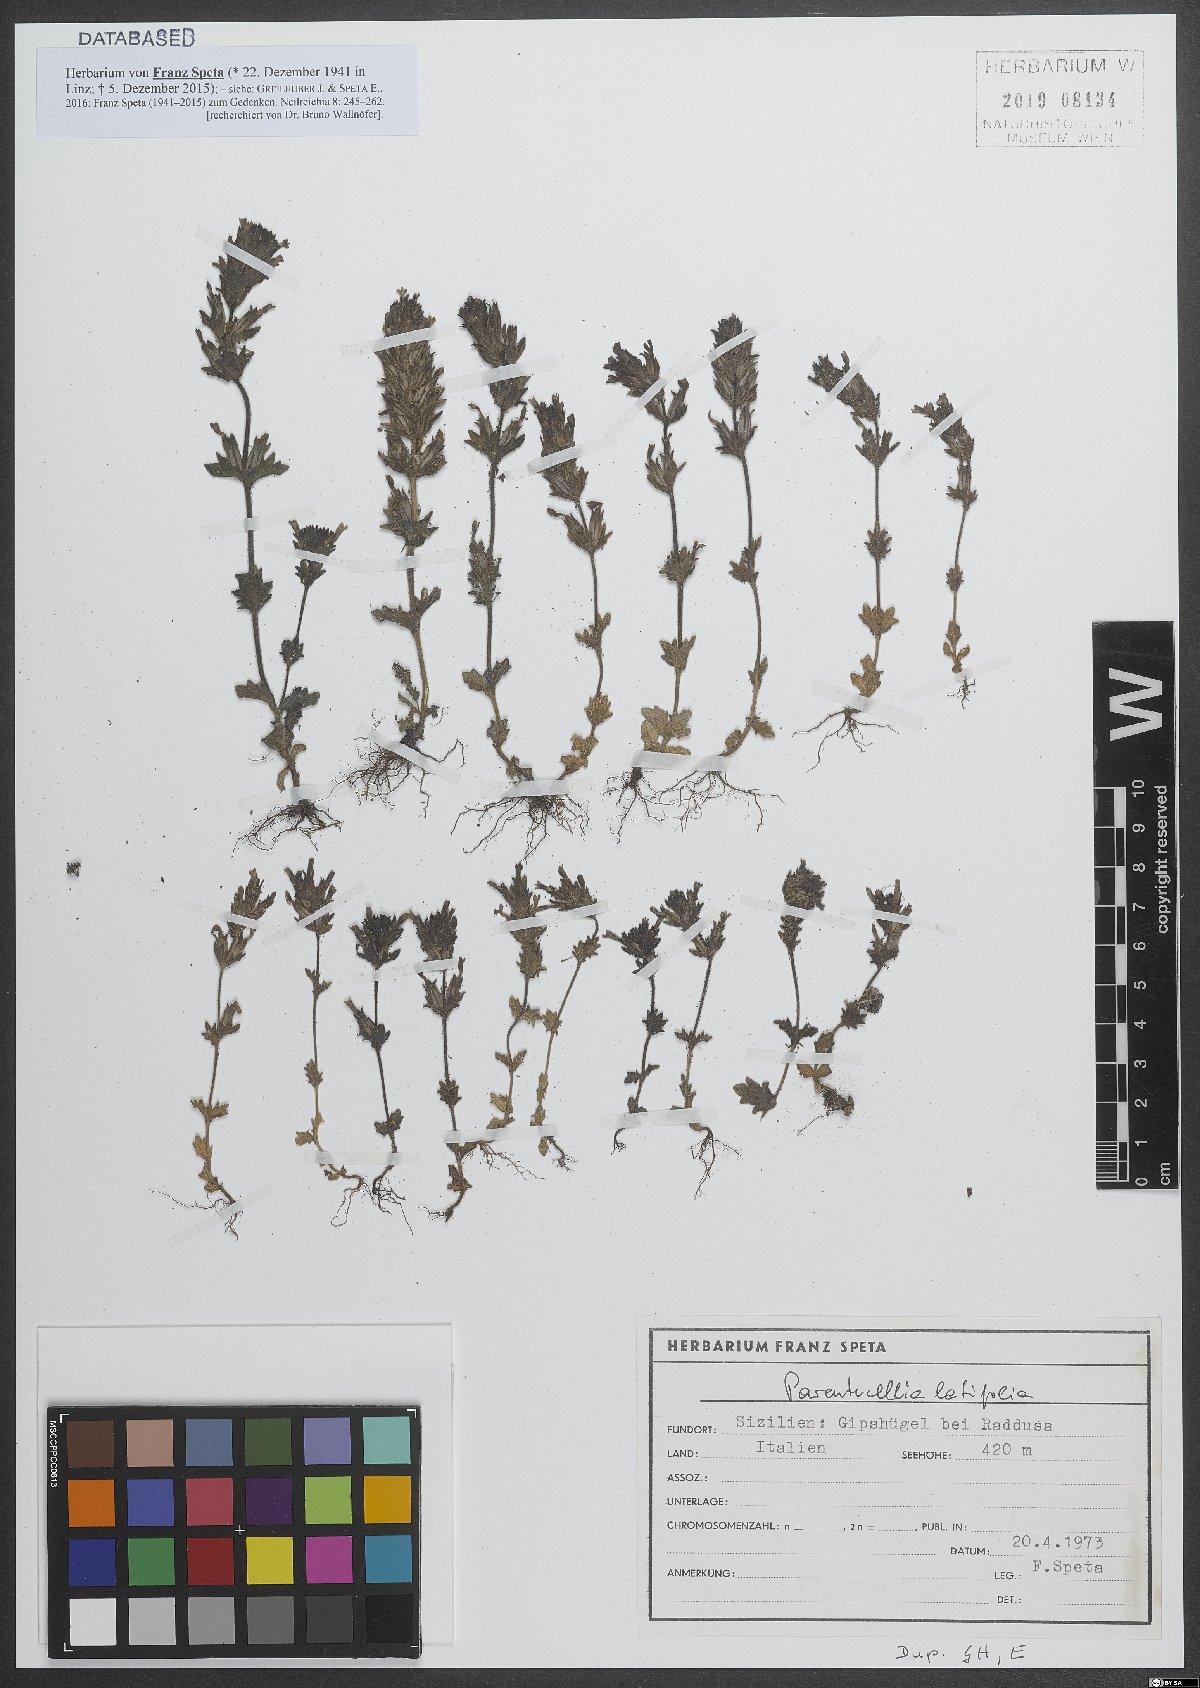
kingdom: Plantae
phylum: Tracheophyta
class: Magnoliopsida
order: Lamiales
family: Orobanchaceae
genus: Parentucellia
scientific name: Parentucellia latifolia
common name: Broadleaf glandweed
